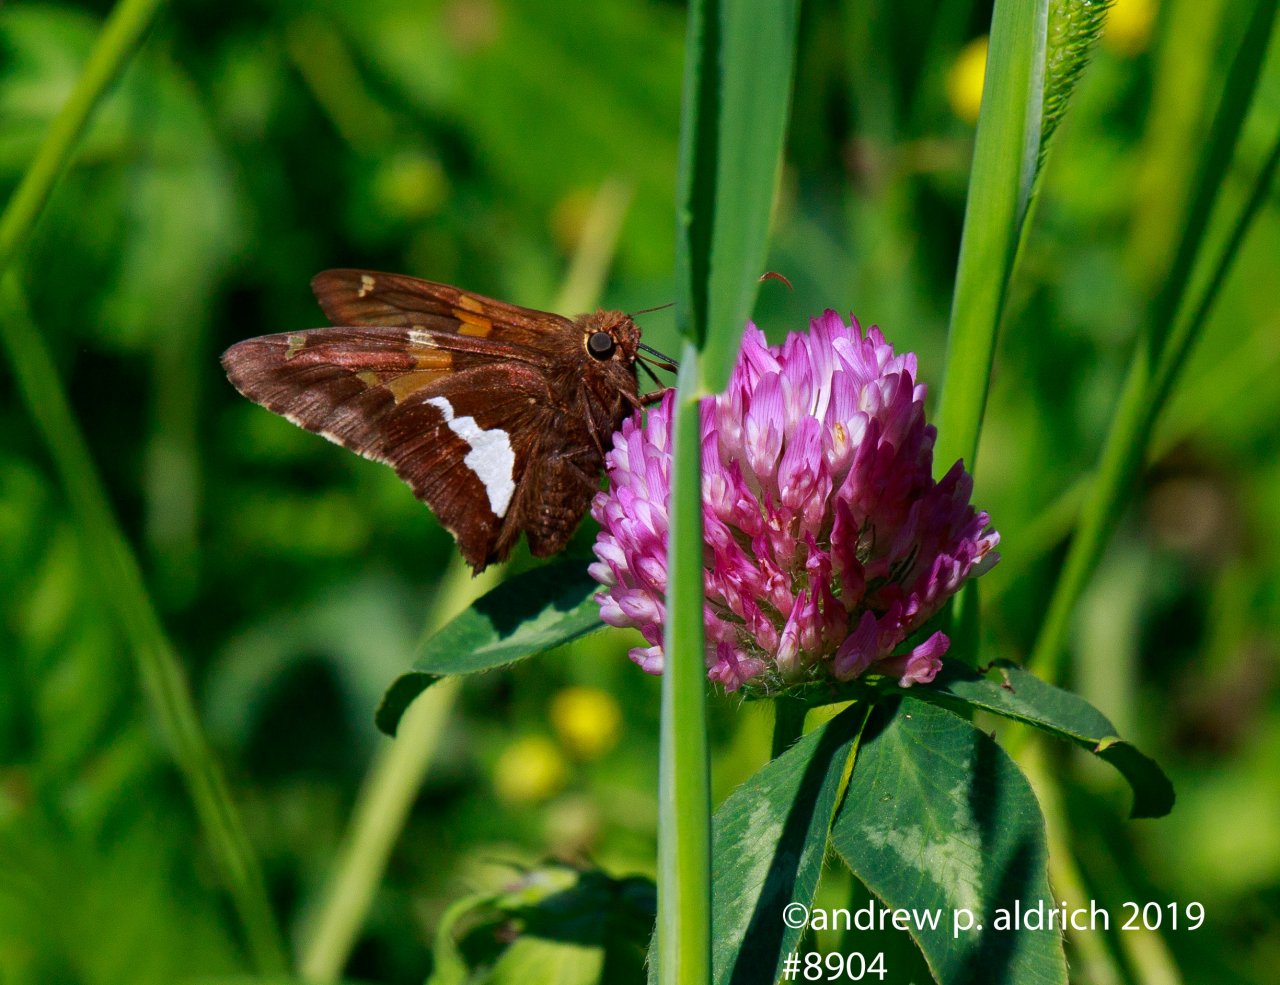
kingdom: Animalia
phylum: Arthropoda
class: Insecta
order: Lepidoptera
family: Hesperiidae
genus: Epargyreus
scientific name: Epargyreus clarus
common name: Silver-spotted Skipper
